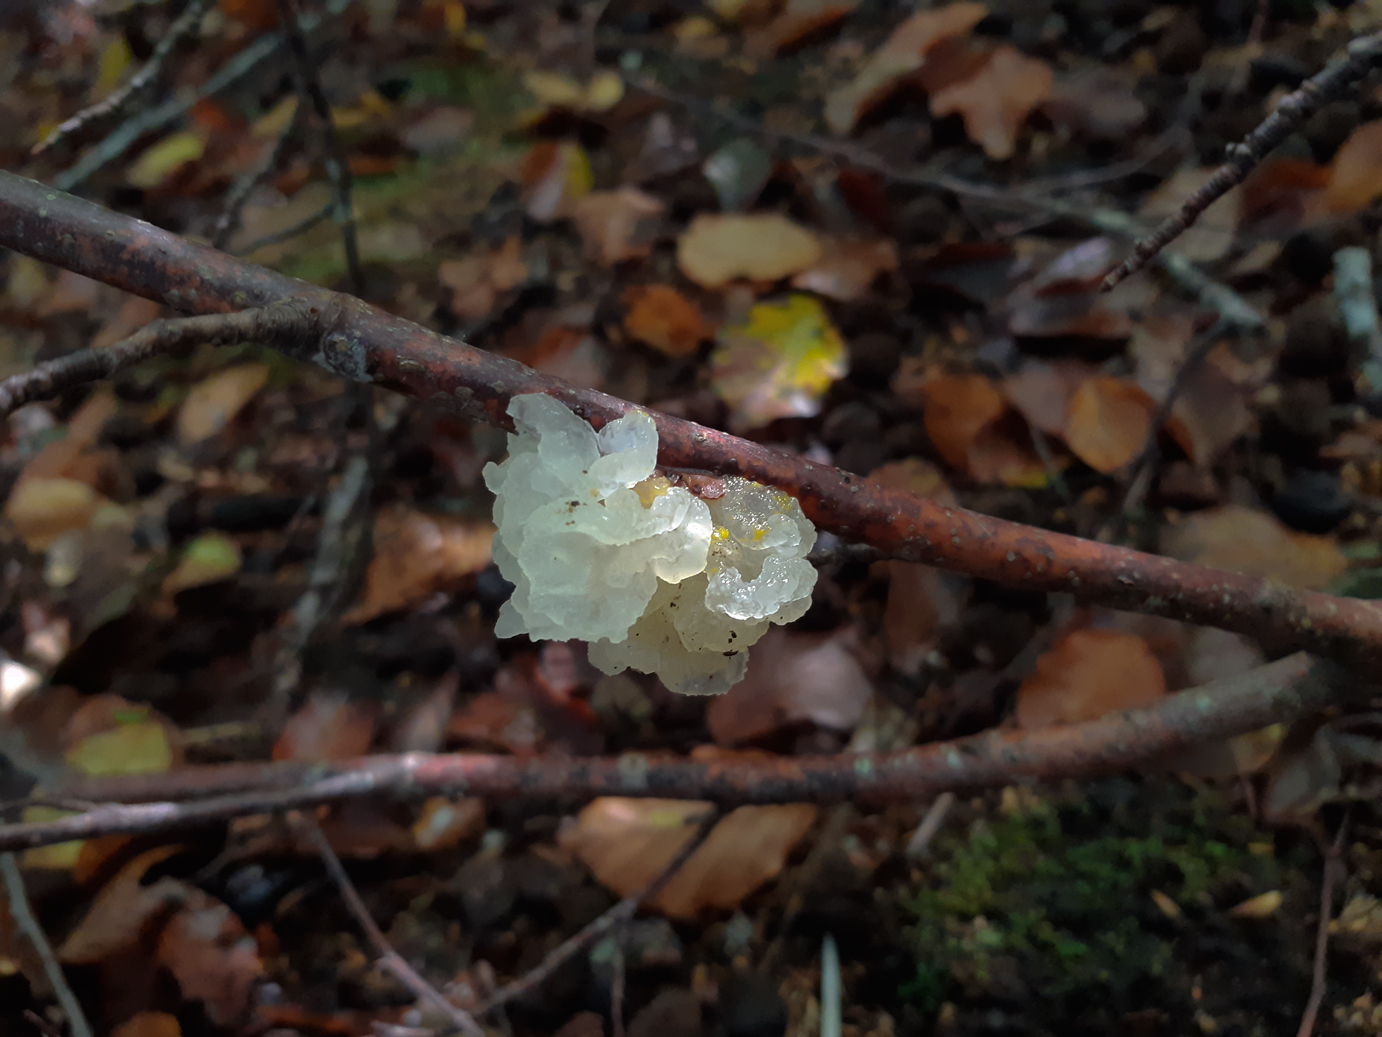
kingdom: Fungi
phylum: Basidiomycota
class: Tremellomycetes
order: Tremellales
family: Tremellaceae
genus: Tremella
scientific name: Tremella mesenterica
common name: gul bævresvamp
